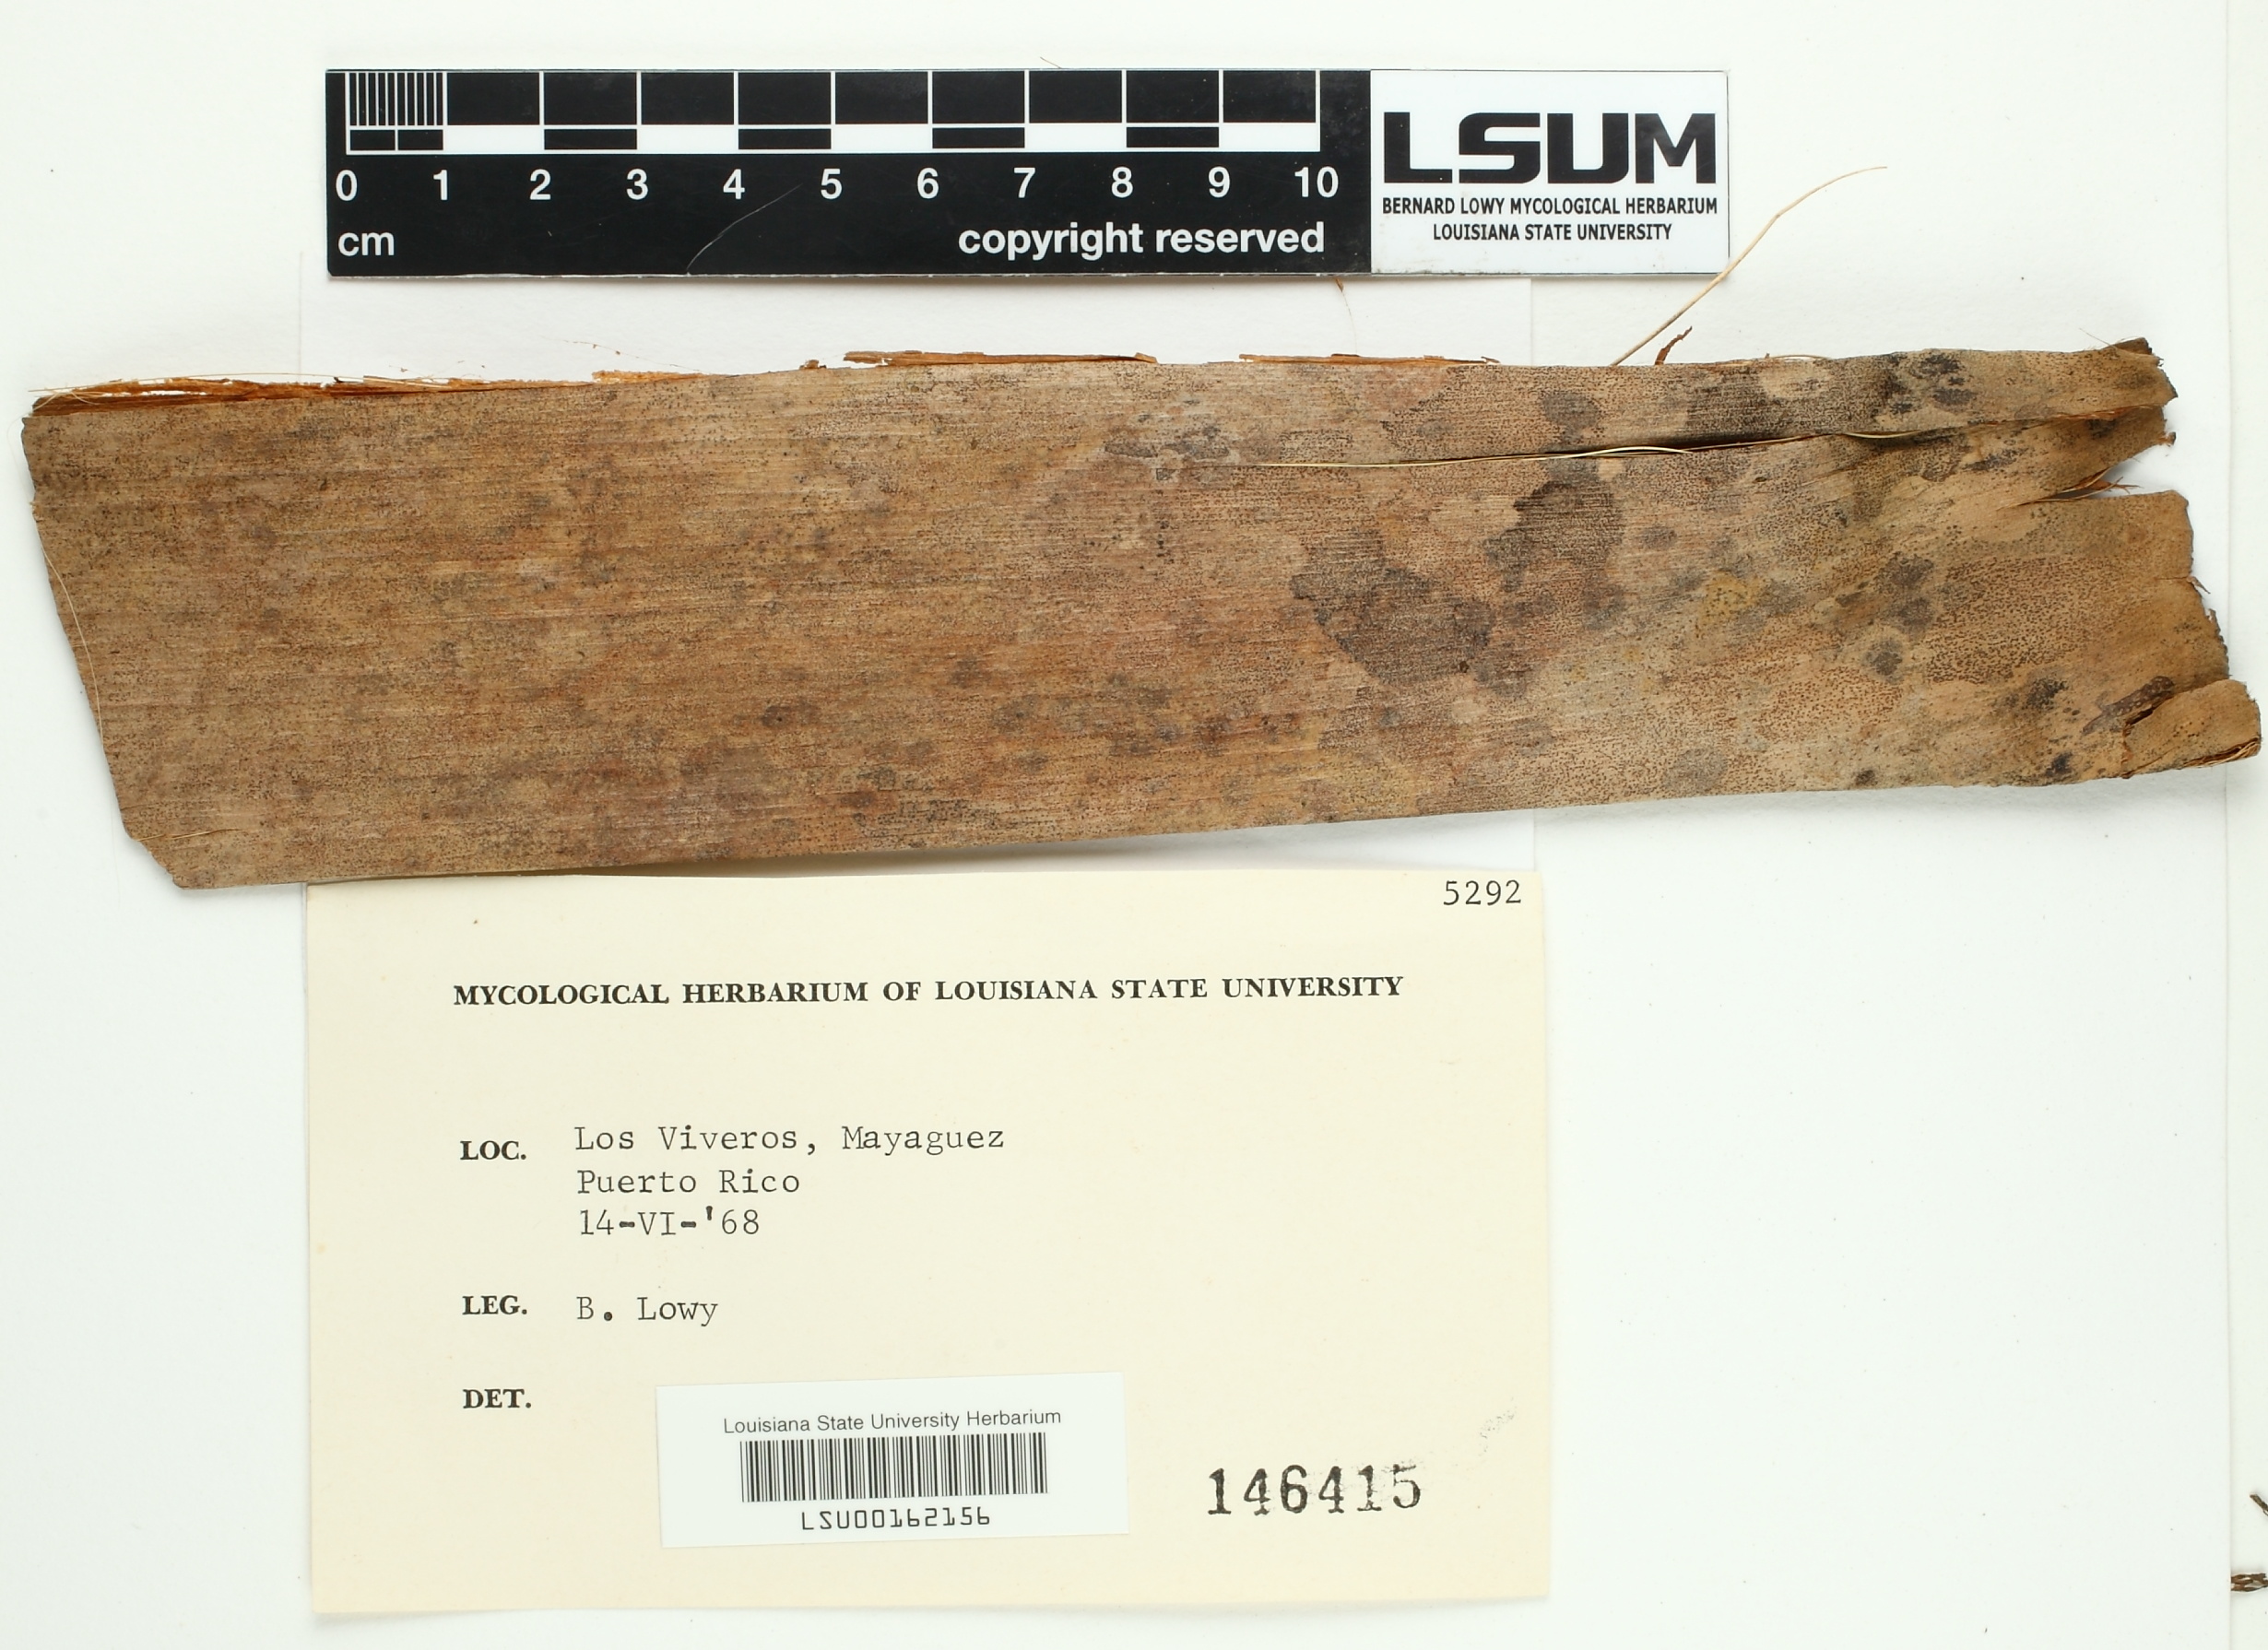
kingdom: Fungi
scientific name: Fungi
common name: Fungi
